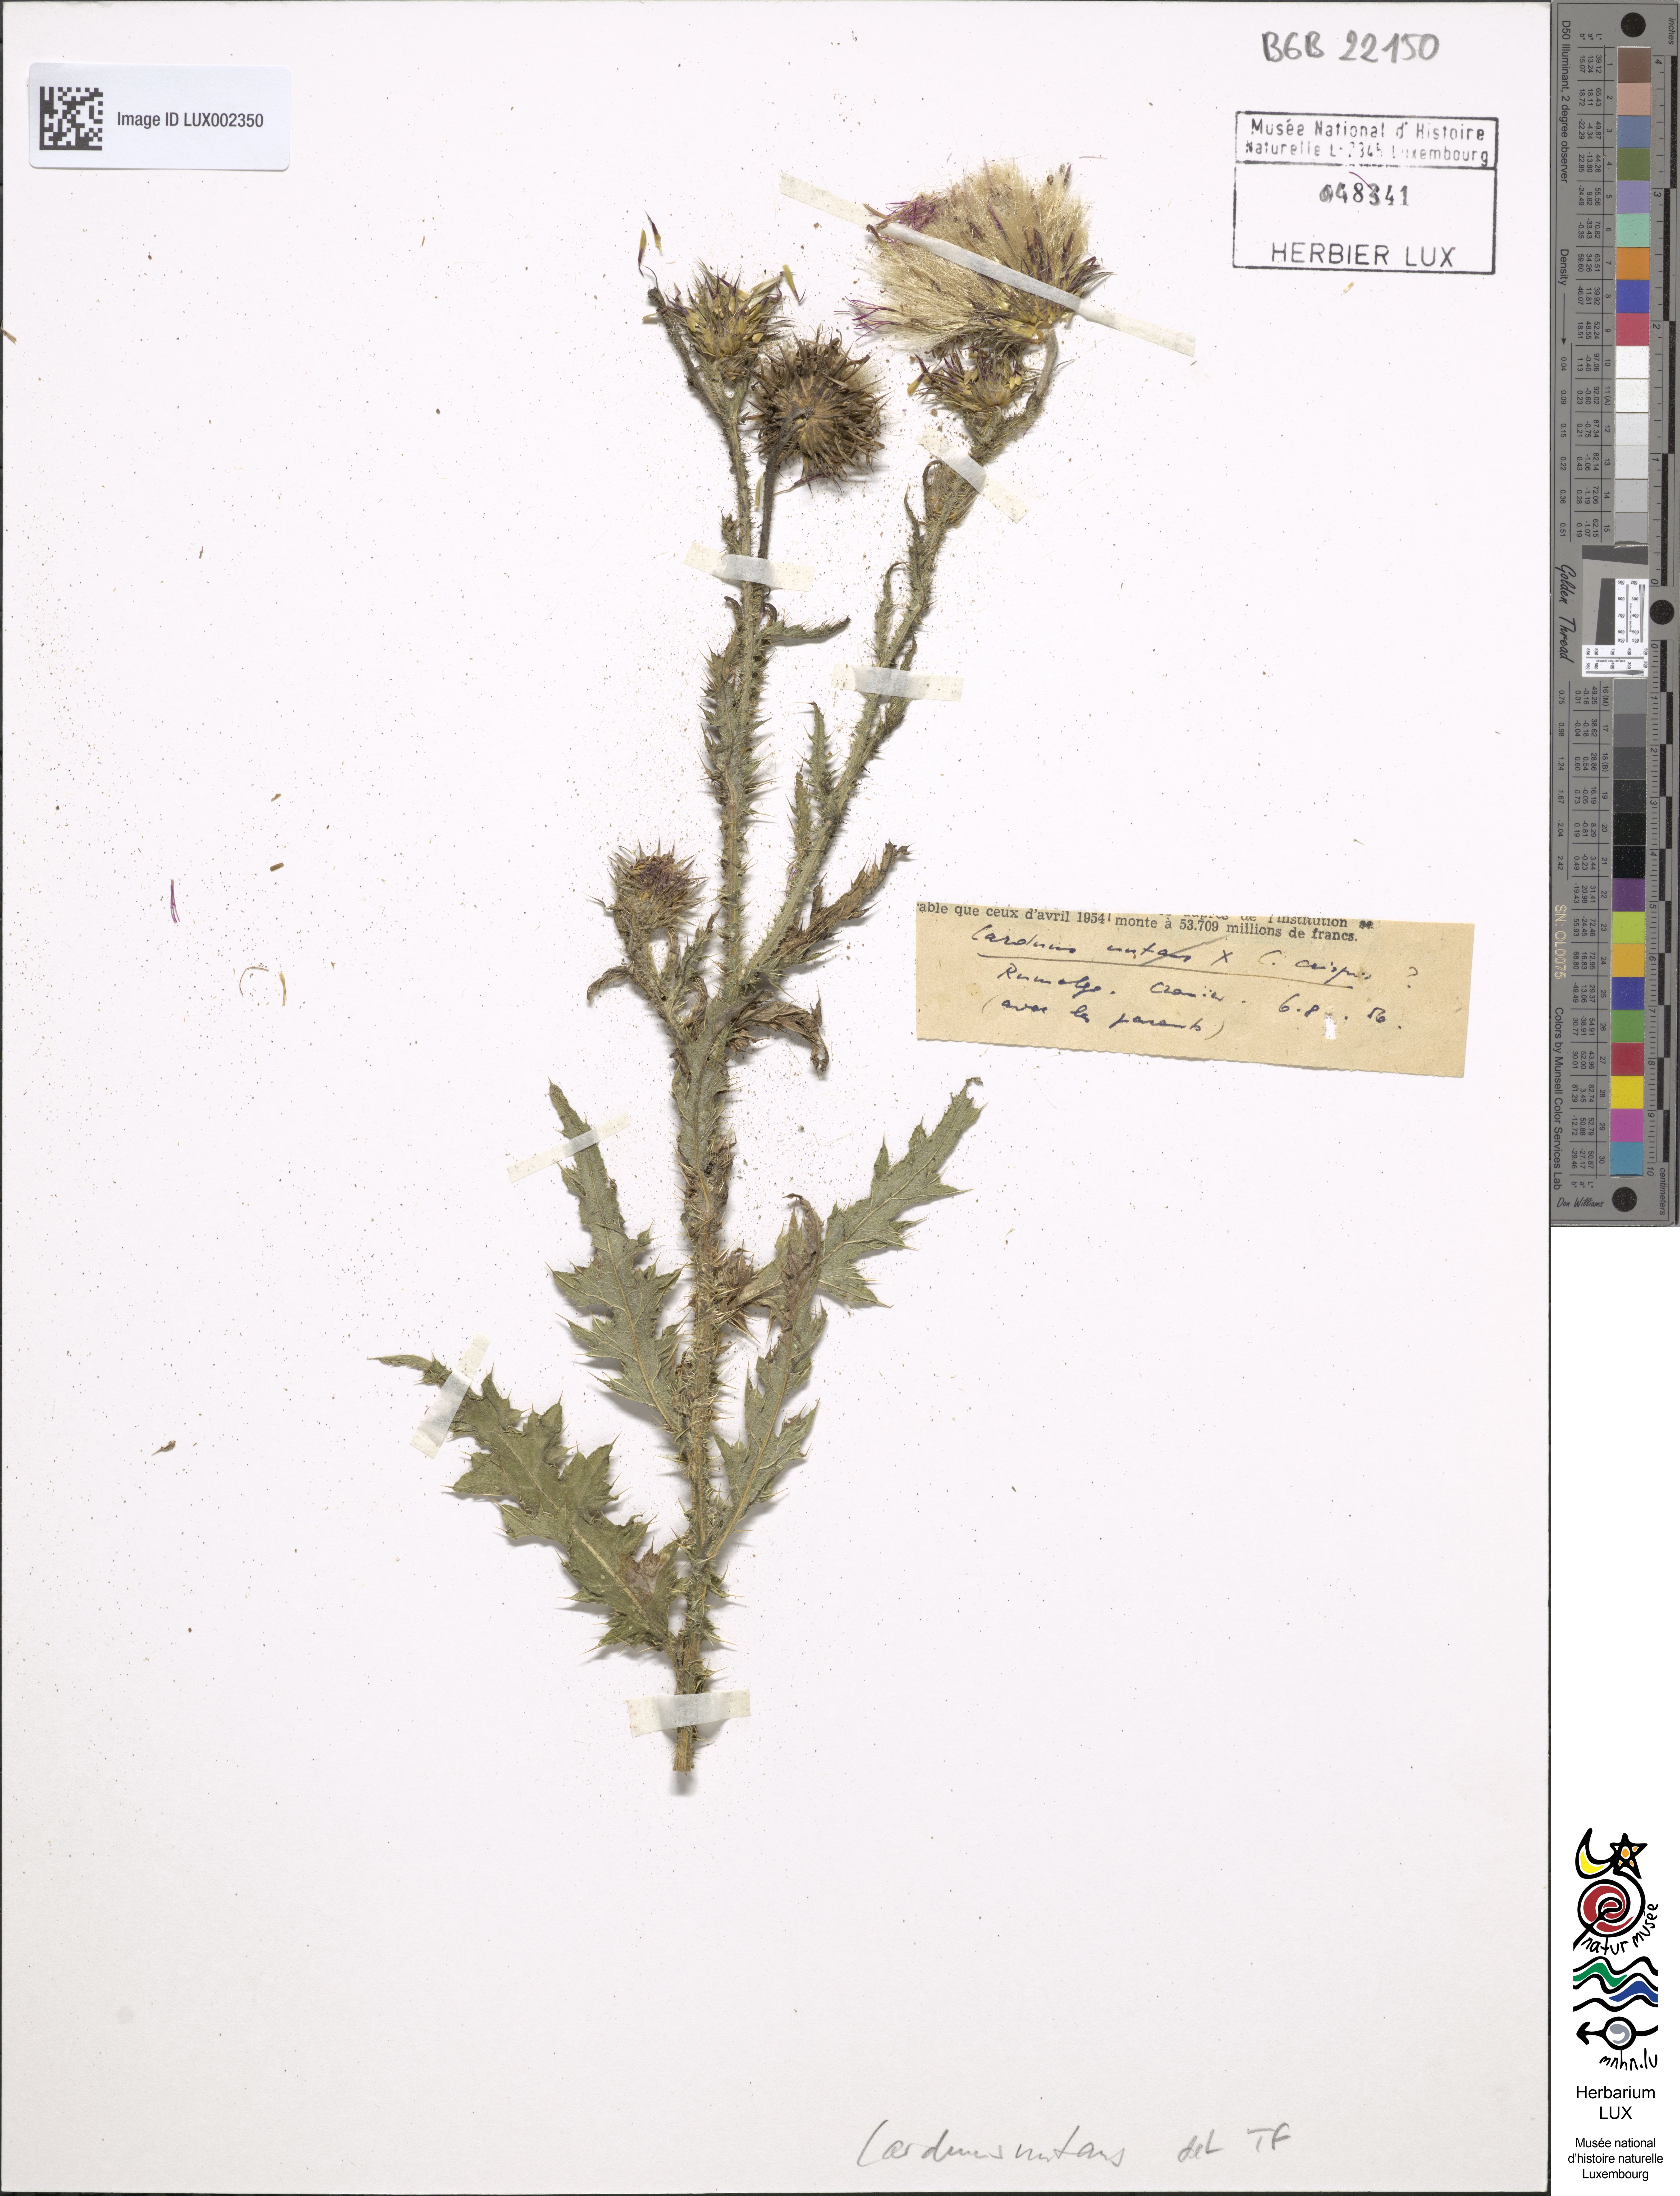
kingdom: Plantae
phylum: Tracheophyta
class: Magnoliopsida
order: Asterales
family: Asteraceae
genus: Carduus
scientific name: Carduus nutans
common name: Musk thistle
